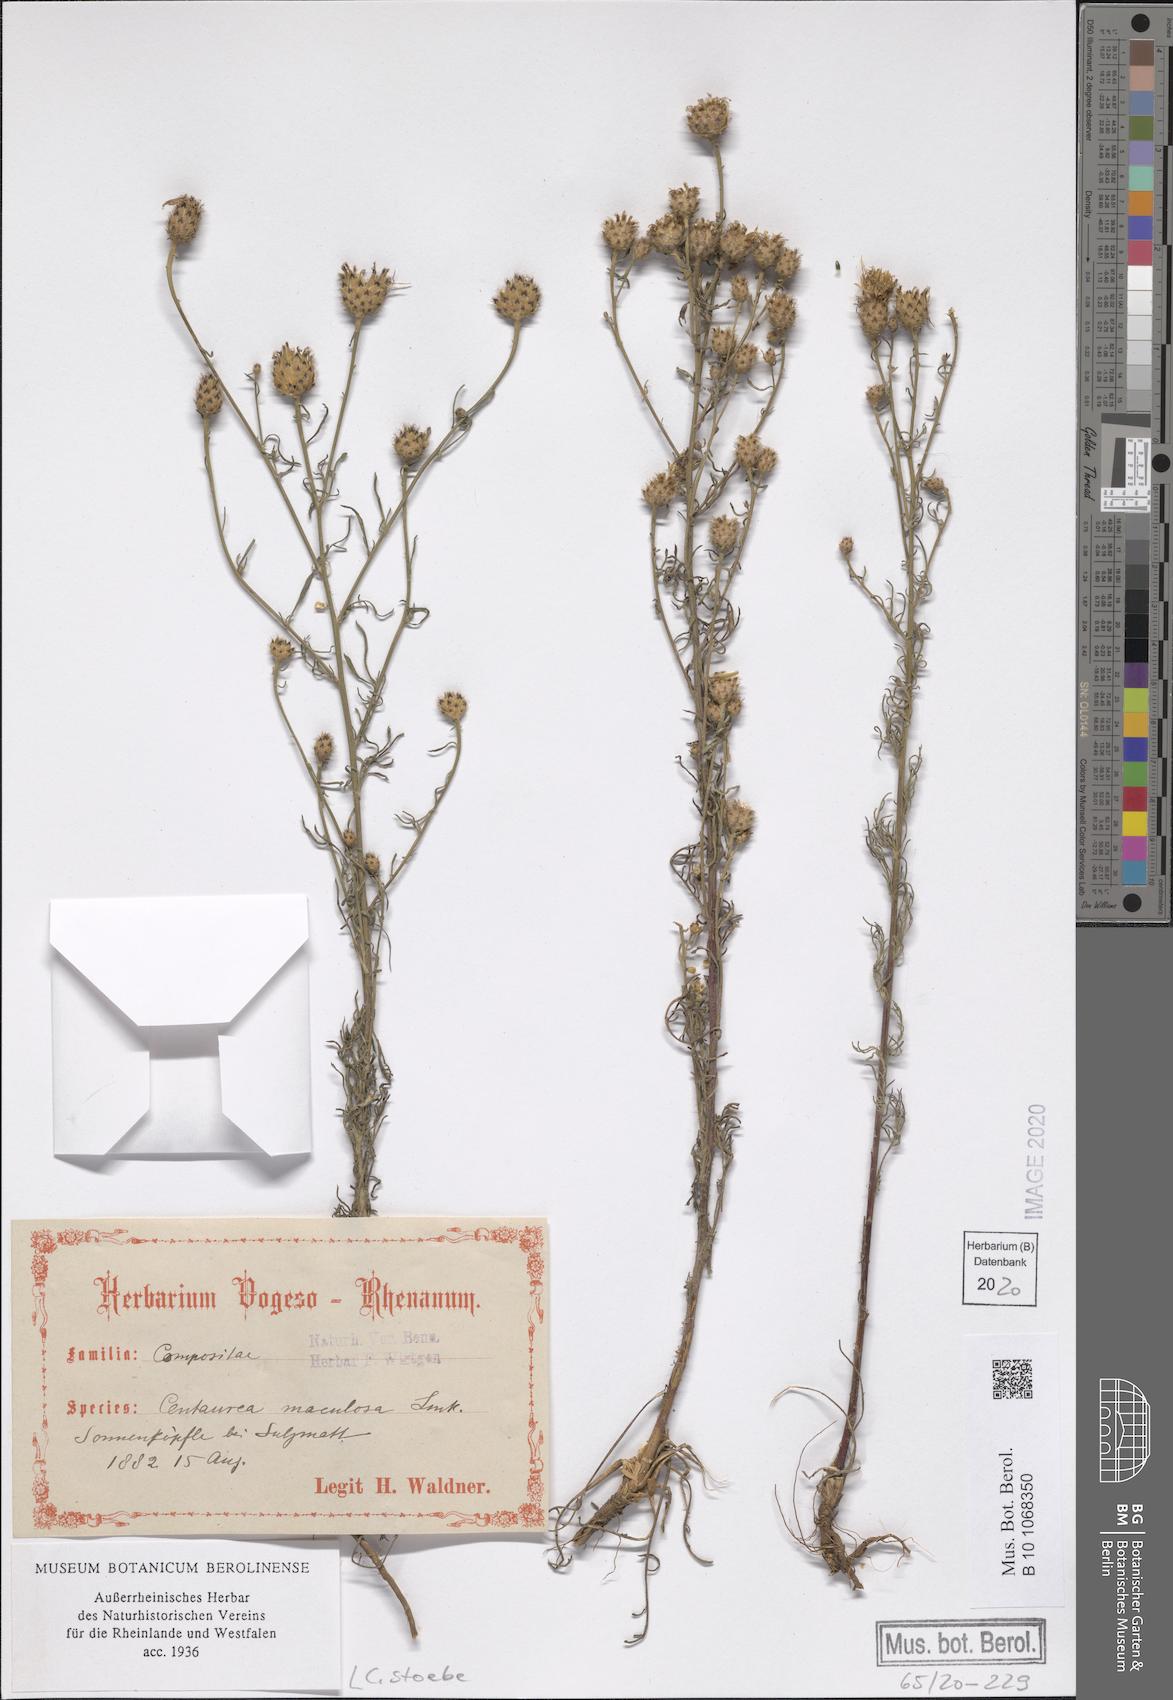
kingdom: Plantae
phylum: Tracheophyta
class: Magnoliopsida
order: Asterales
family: Asteraceae
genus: Centaurea
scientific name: Centaurea stoebe
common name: Spotted knapweed
